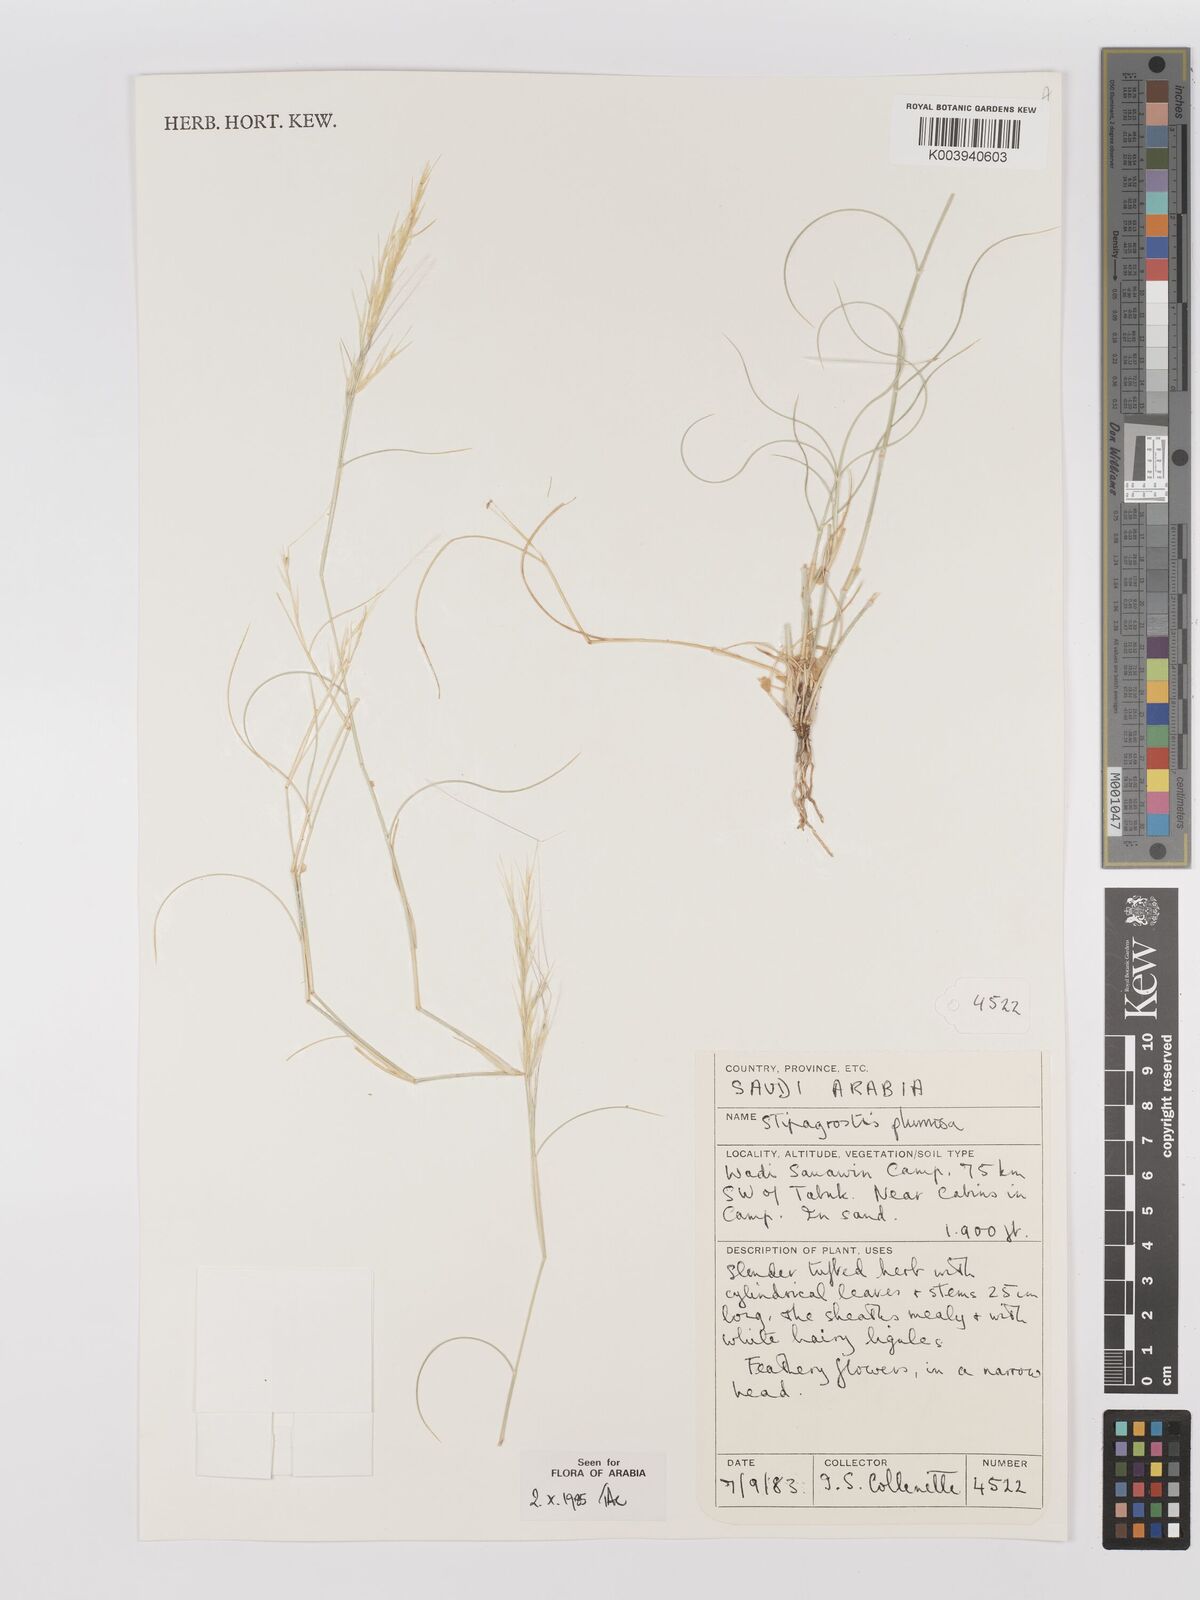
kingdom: Plantae
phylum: Tracheophyta
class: Liliopsida
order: Poales
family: Poaceae
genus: Stipagrostis
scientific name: Stipagrostis plumosa
